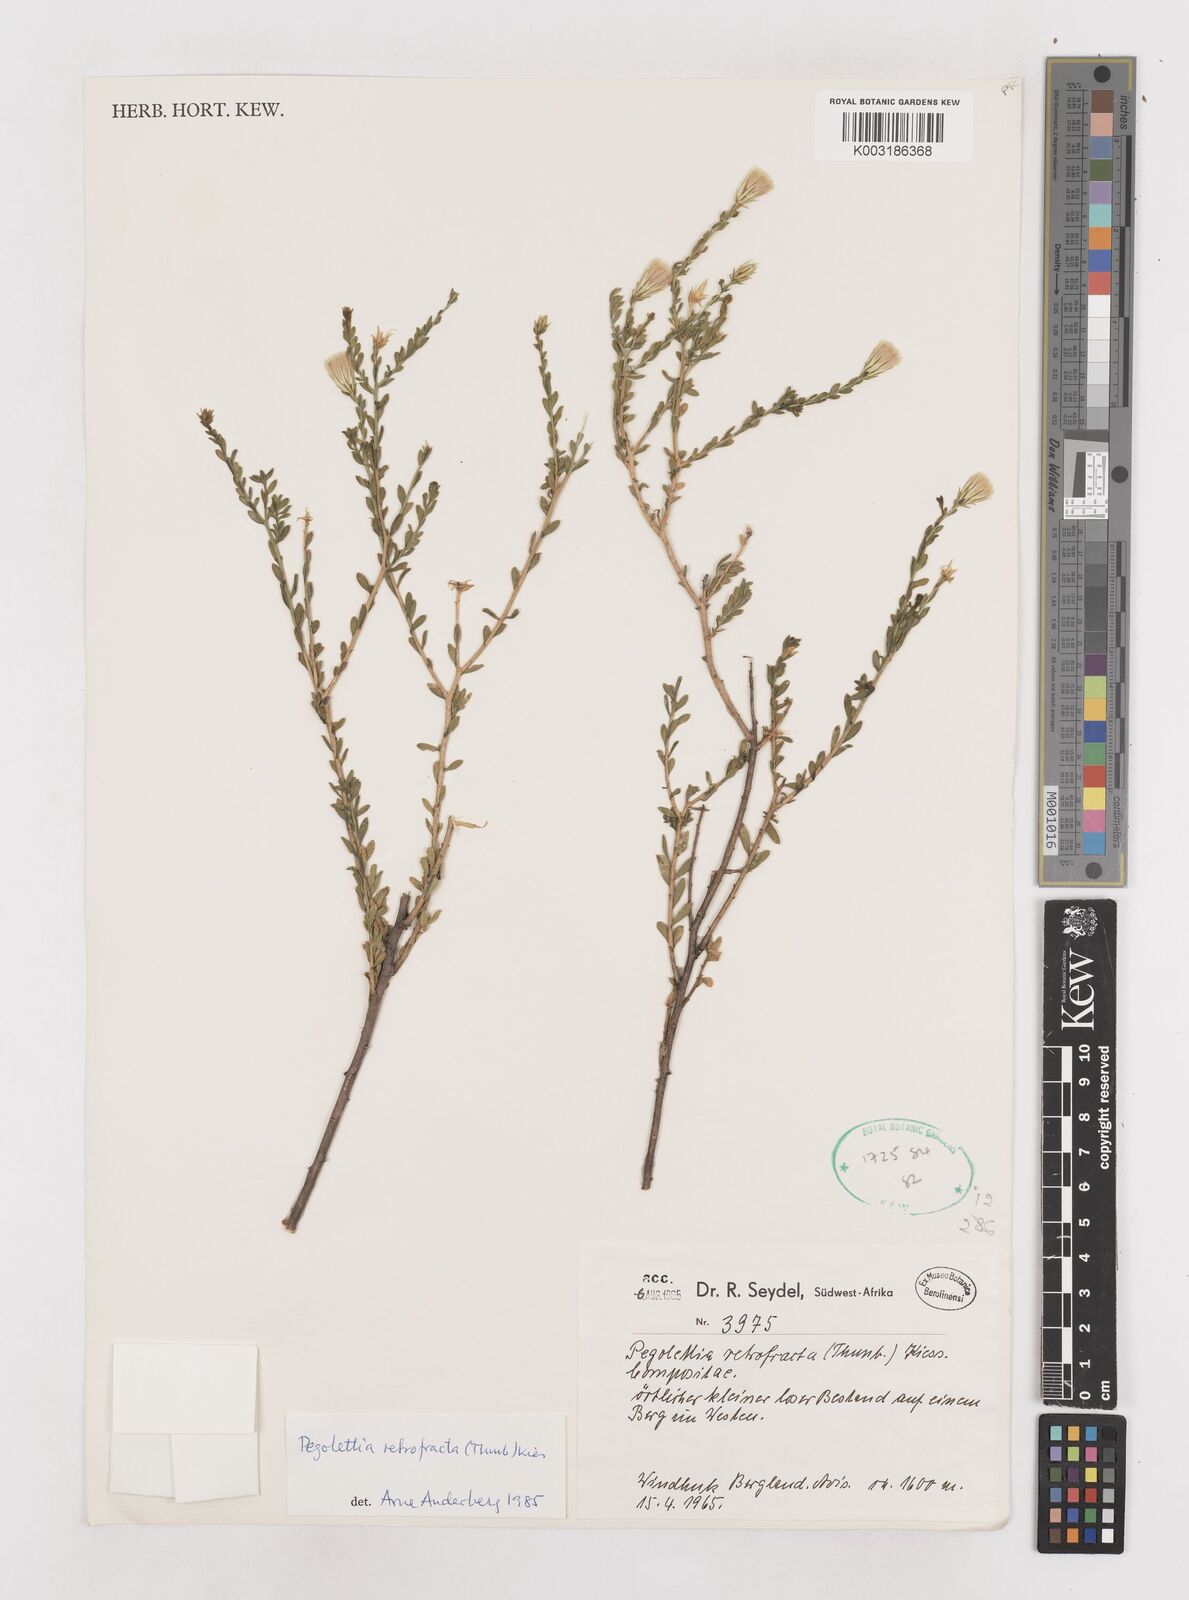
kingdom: Plantae
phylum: Tracheophyta
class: Magnoliopsida
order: Asterales
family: Asteraceae
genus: Pegolettia
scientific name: Pegolettia retrofracta
